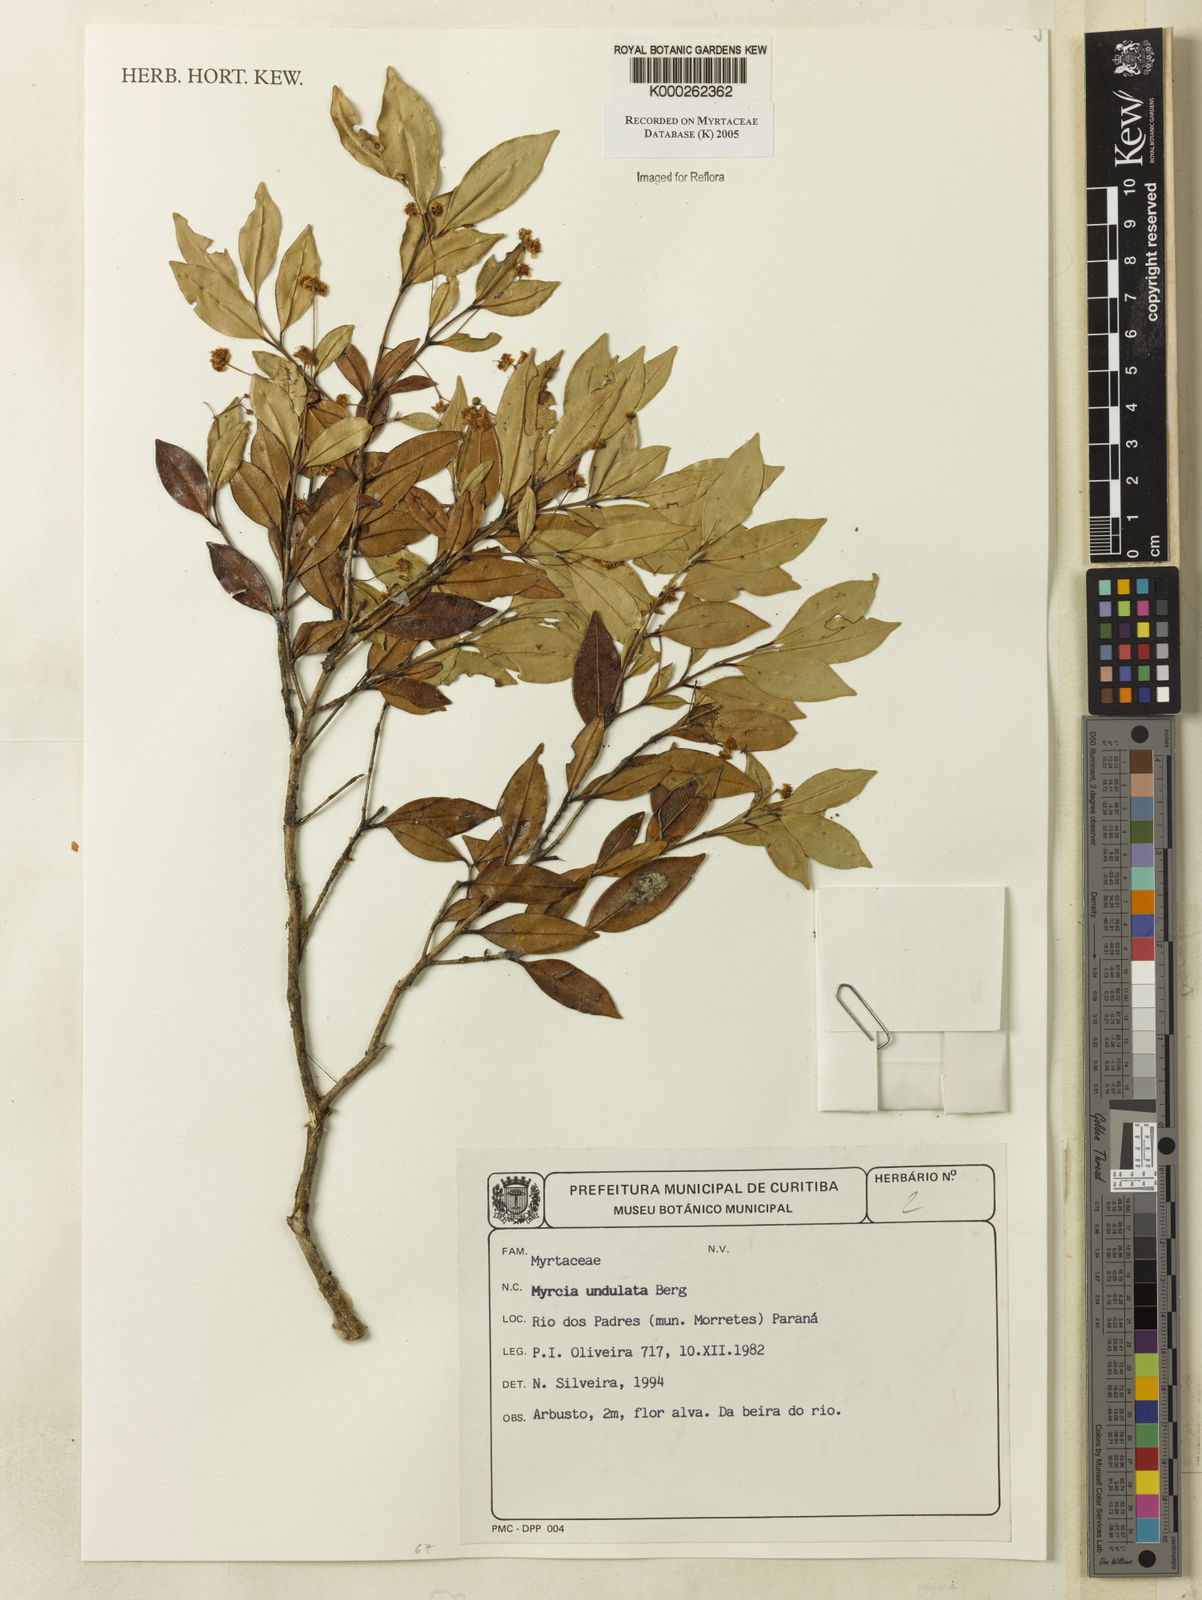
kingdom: Plantae
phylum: Tracheophyta
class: Magnoliopsida
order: Myrtales
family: Myrtaceae
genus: Myrcia
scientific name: Myrcia undulata
